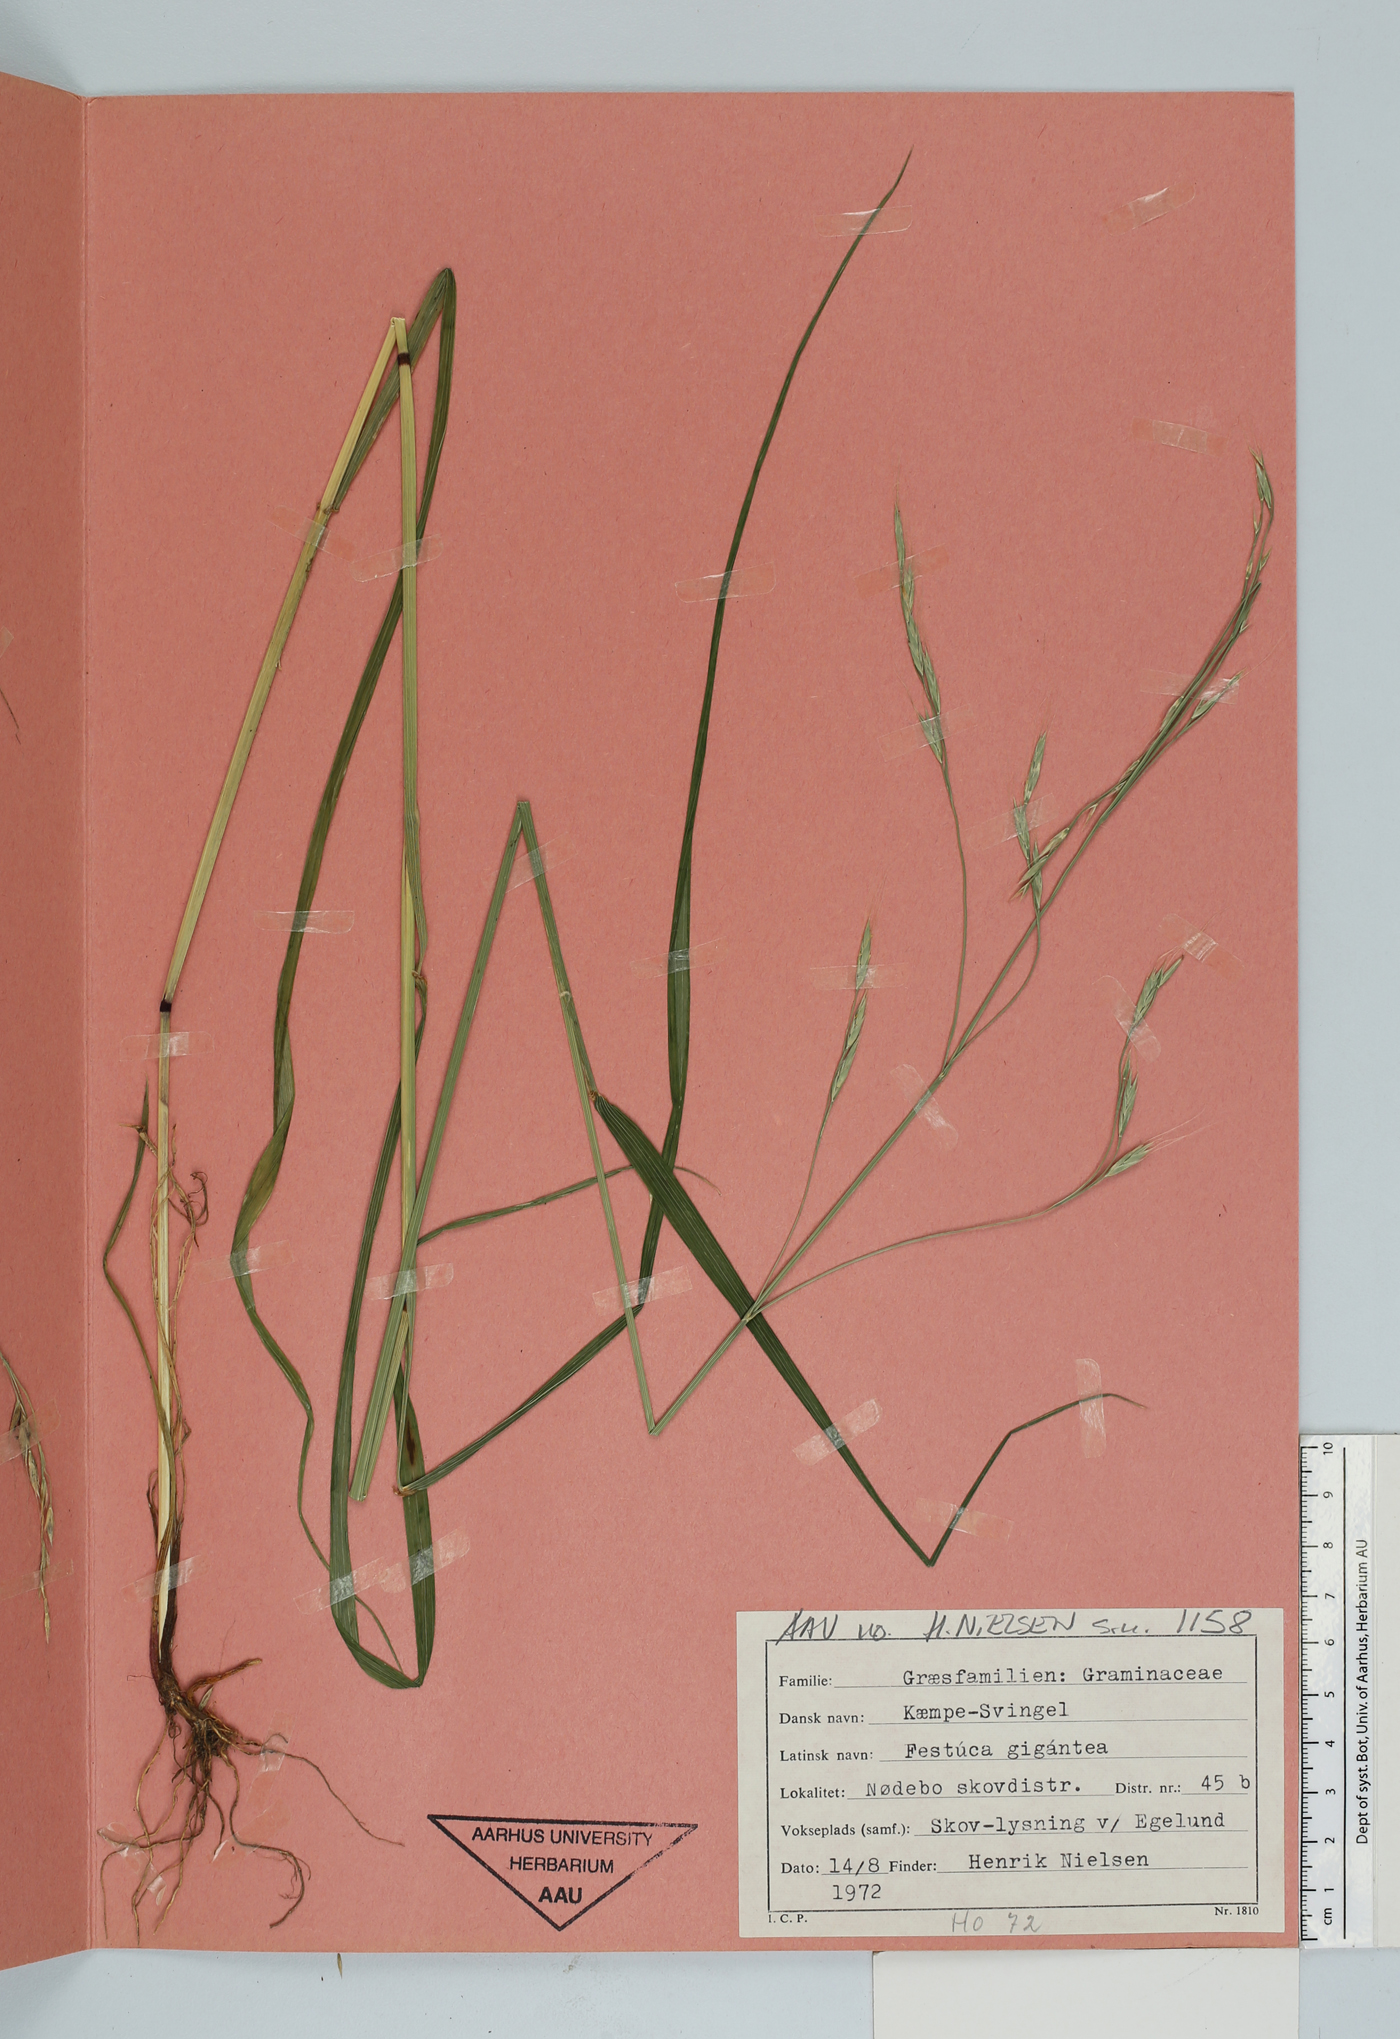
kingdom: Plantae
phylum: Tracheophyta
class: Liliopsida
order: Poales
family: Poaceae
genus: Lolium
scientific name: Lolium giganteum
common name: Giant fescue
